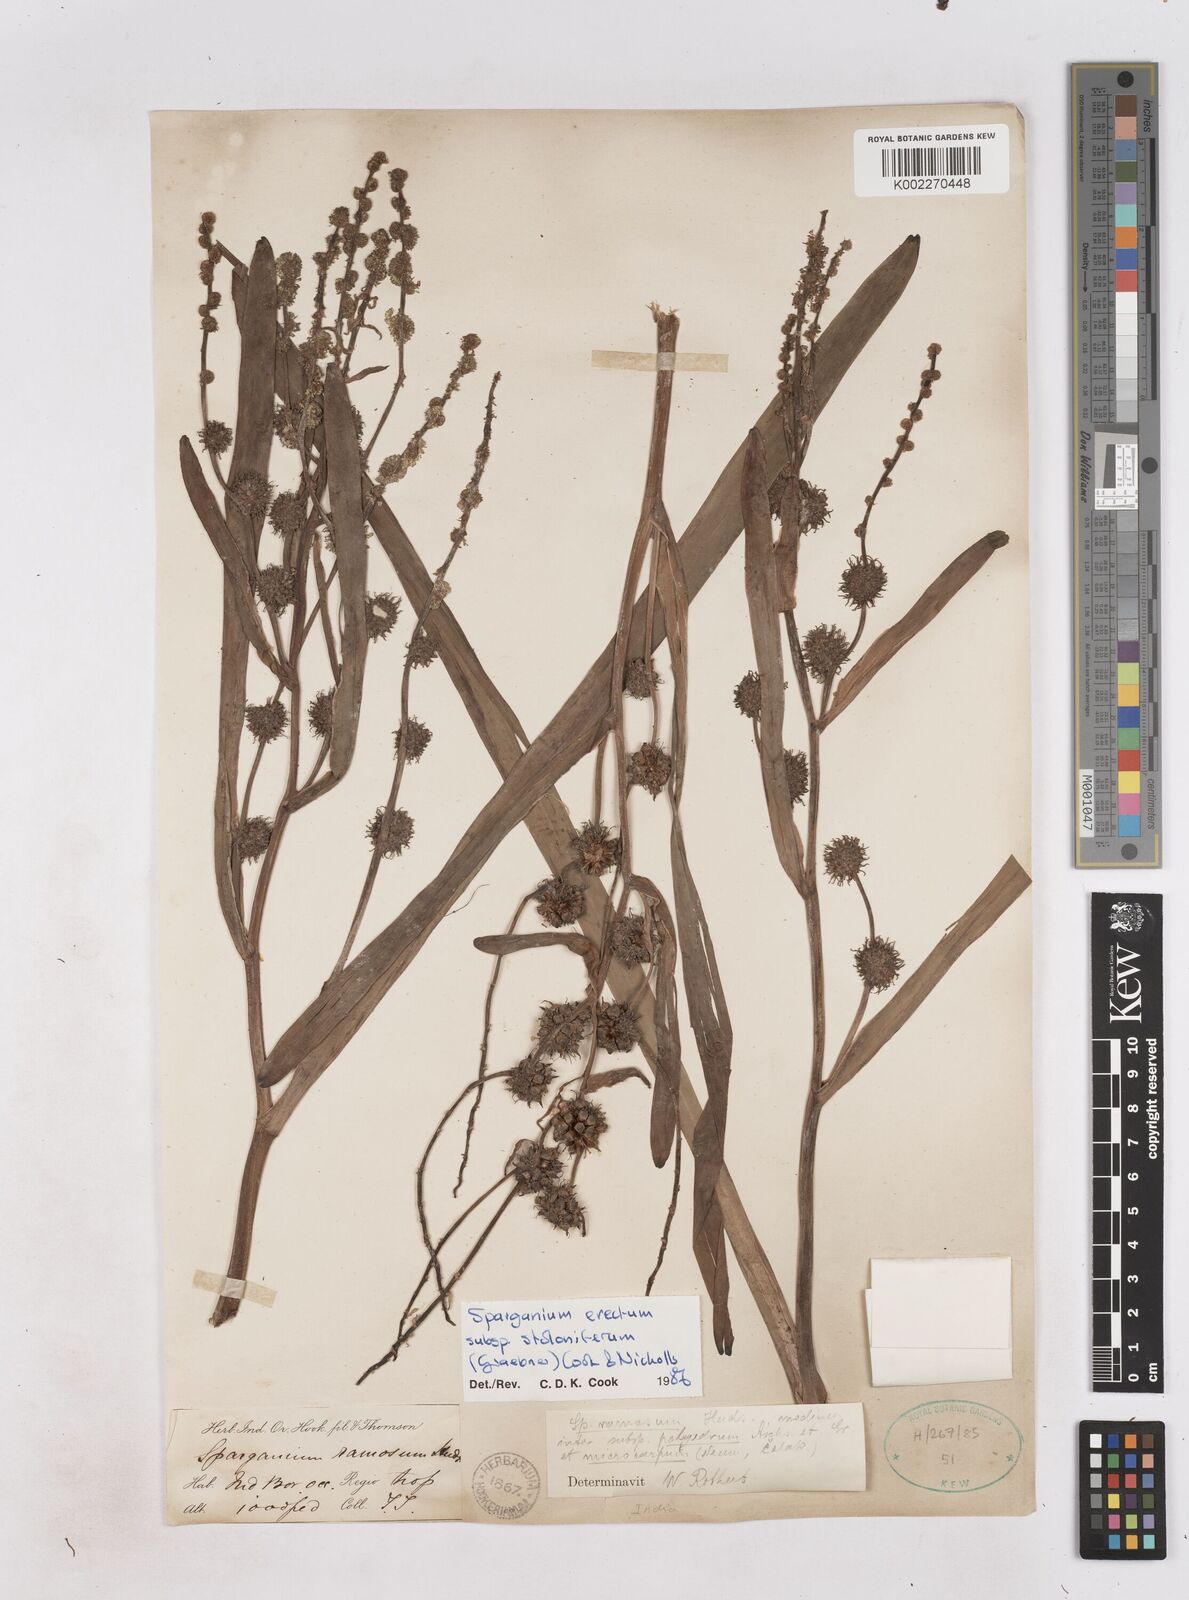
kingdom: Plantae
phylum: Tracheophyta
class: Liliopsida
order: Poales
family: Typhaceae
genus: Sparganium
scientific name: Sparganium stoloniferum
